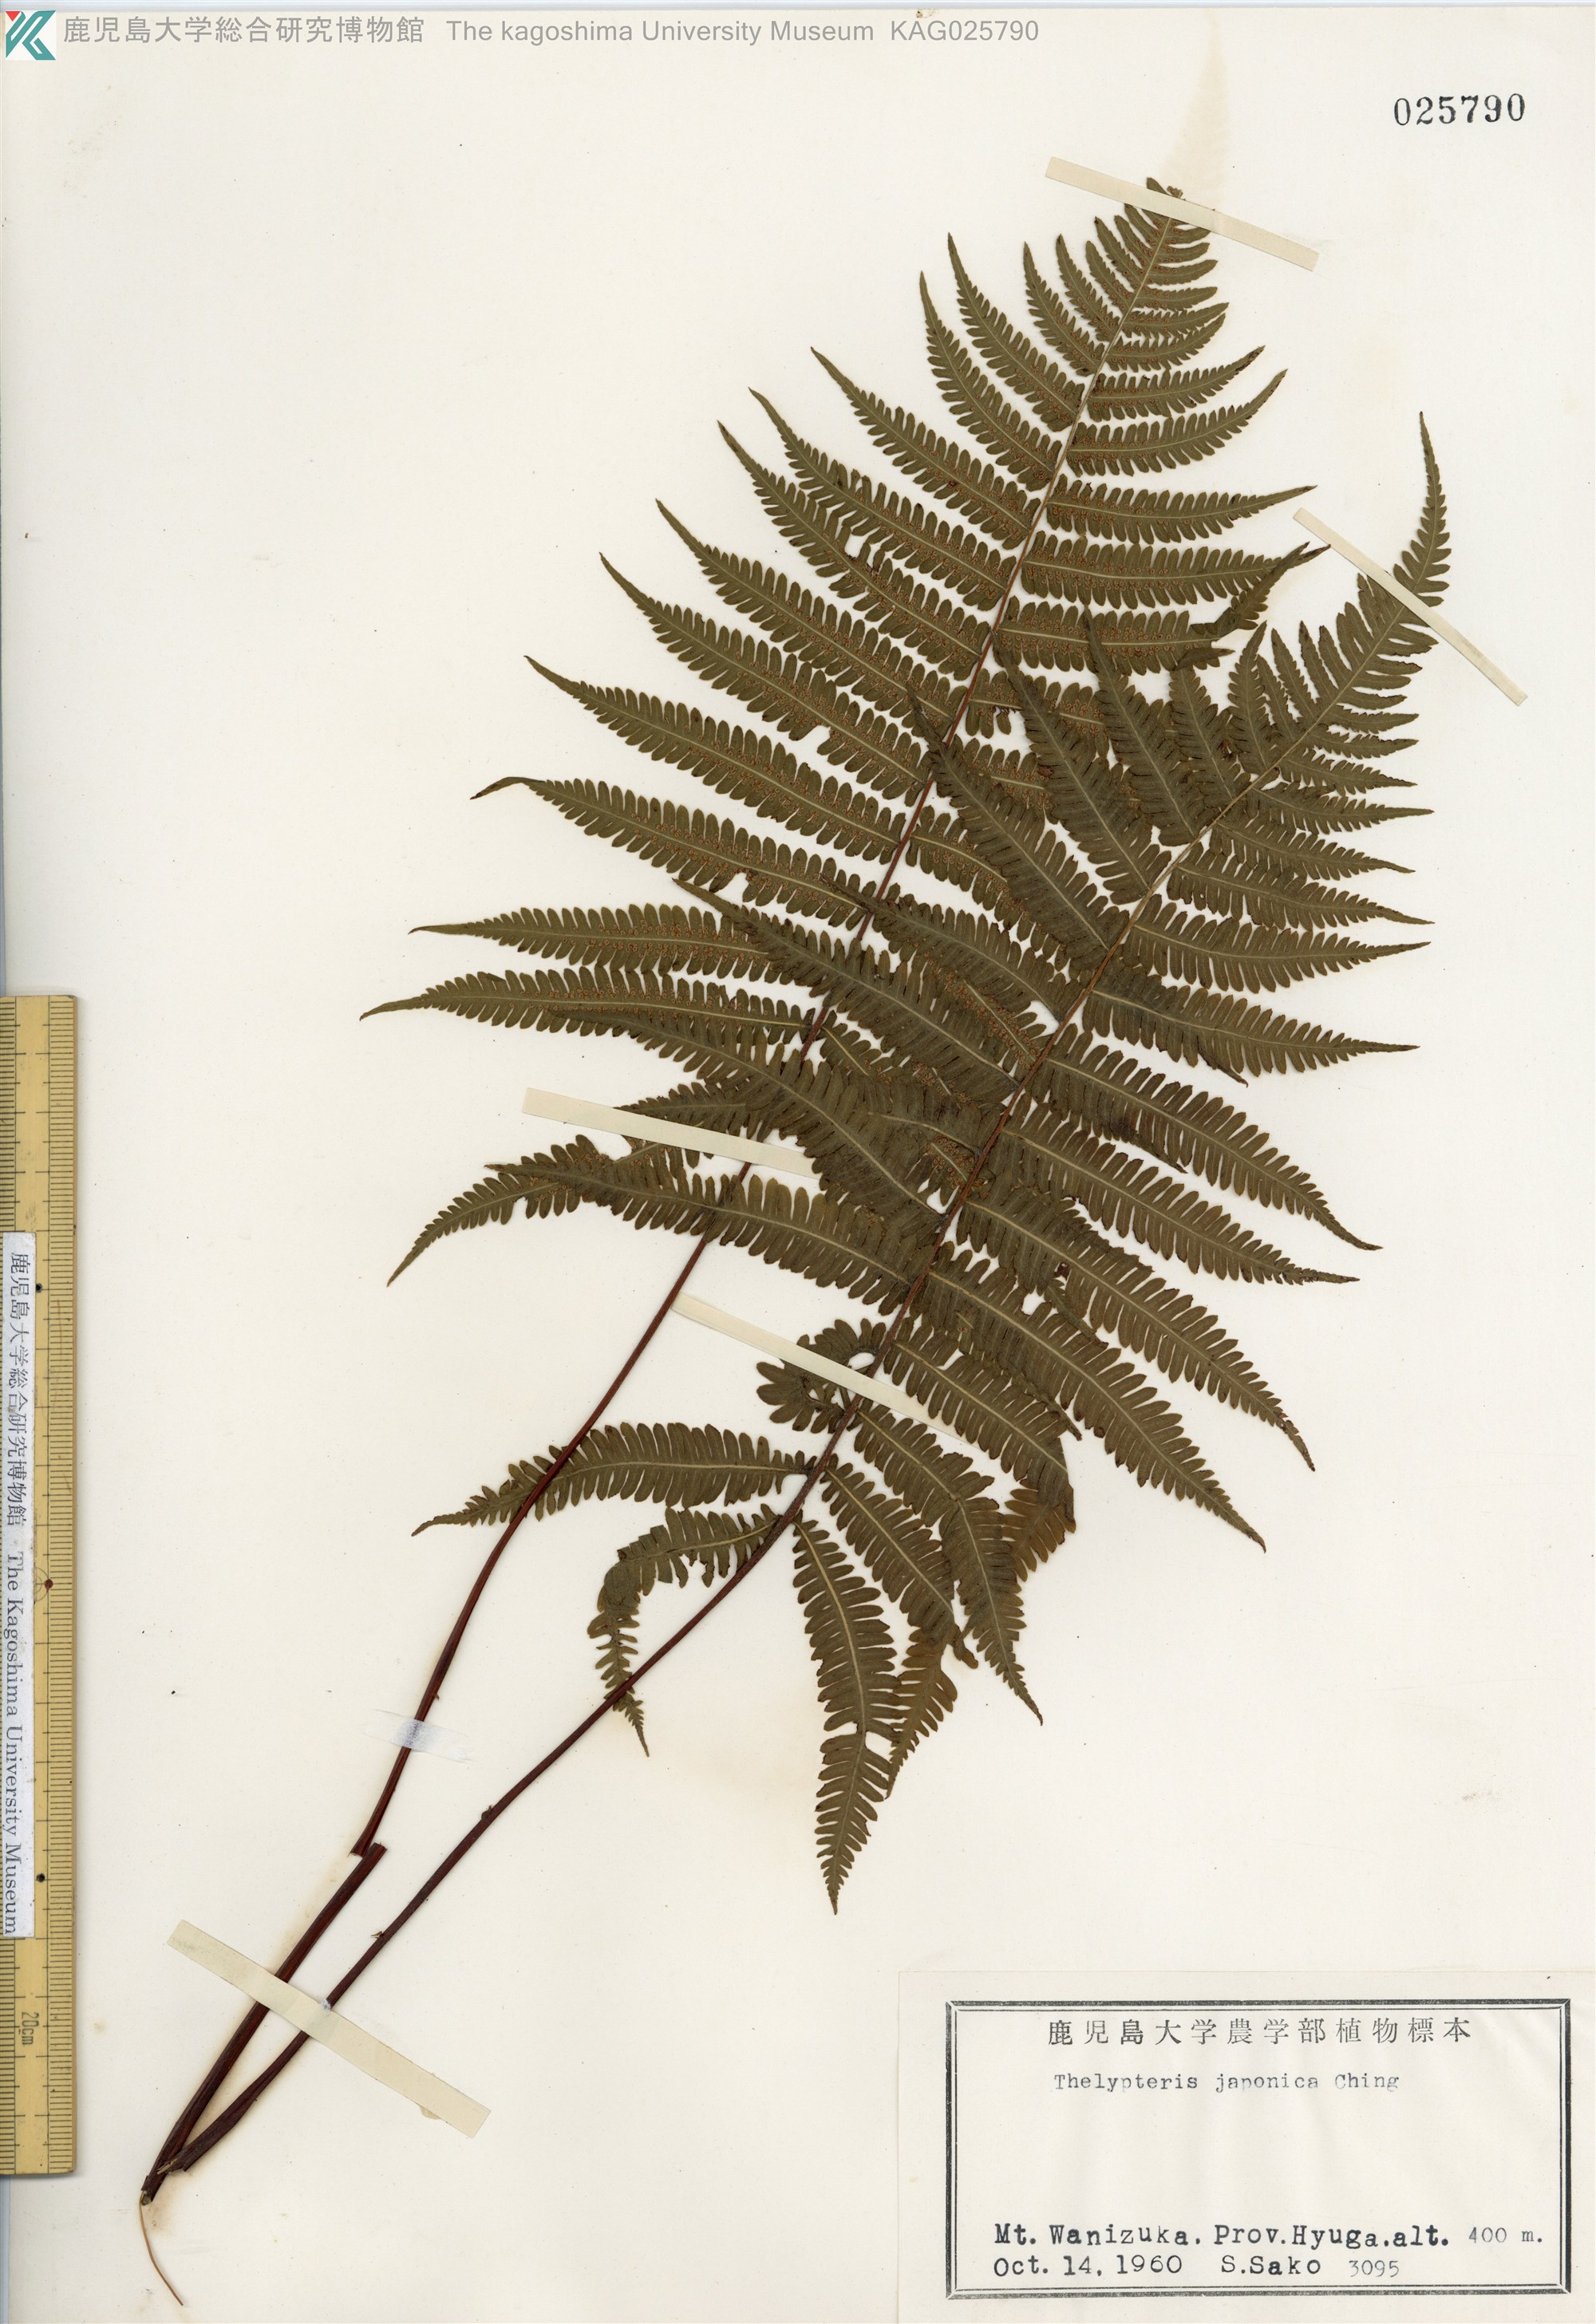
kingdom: Plantae
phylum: Tracheophyta
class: Polypodiopsida
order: Polypodiales
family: Thelypteridaceae
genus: Coryphopteris
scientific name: Coryphopteris japonica
